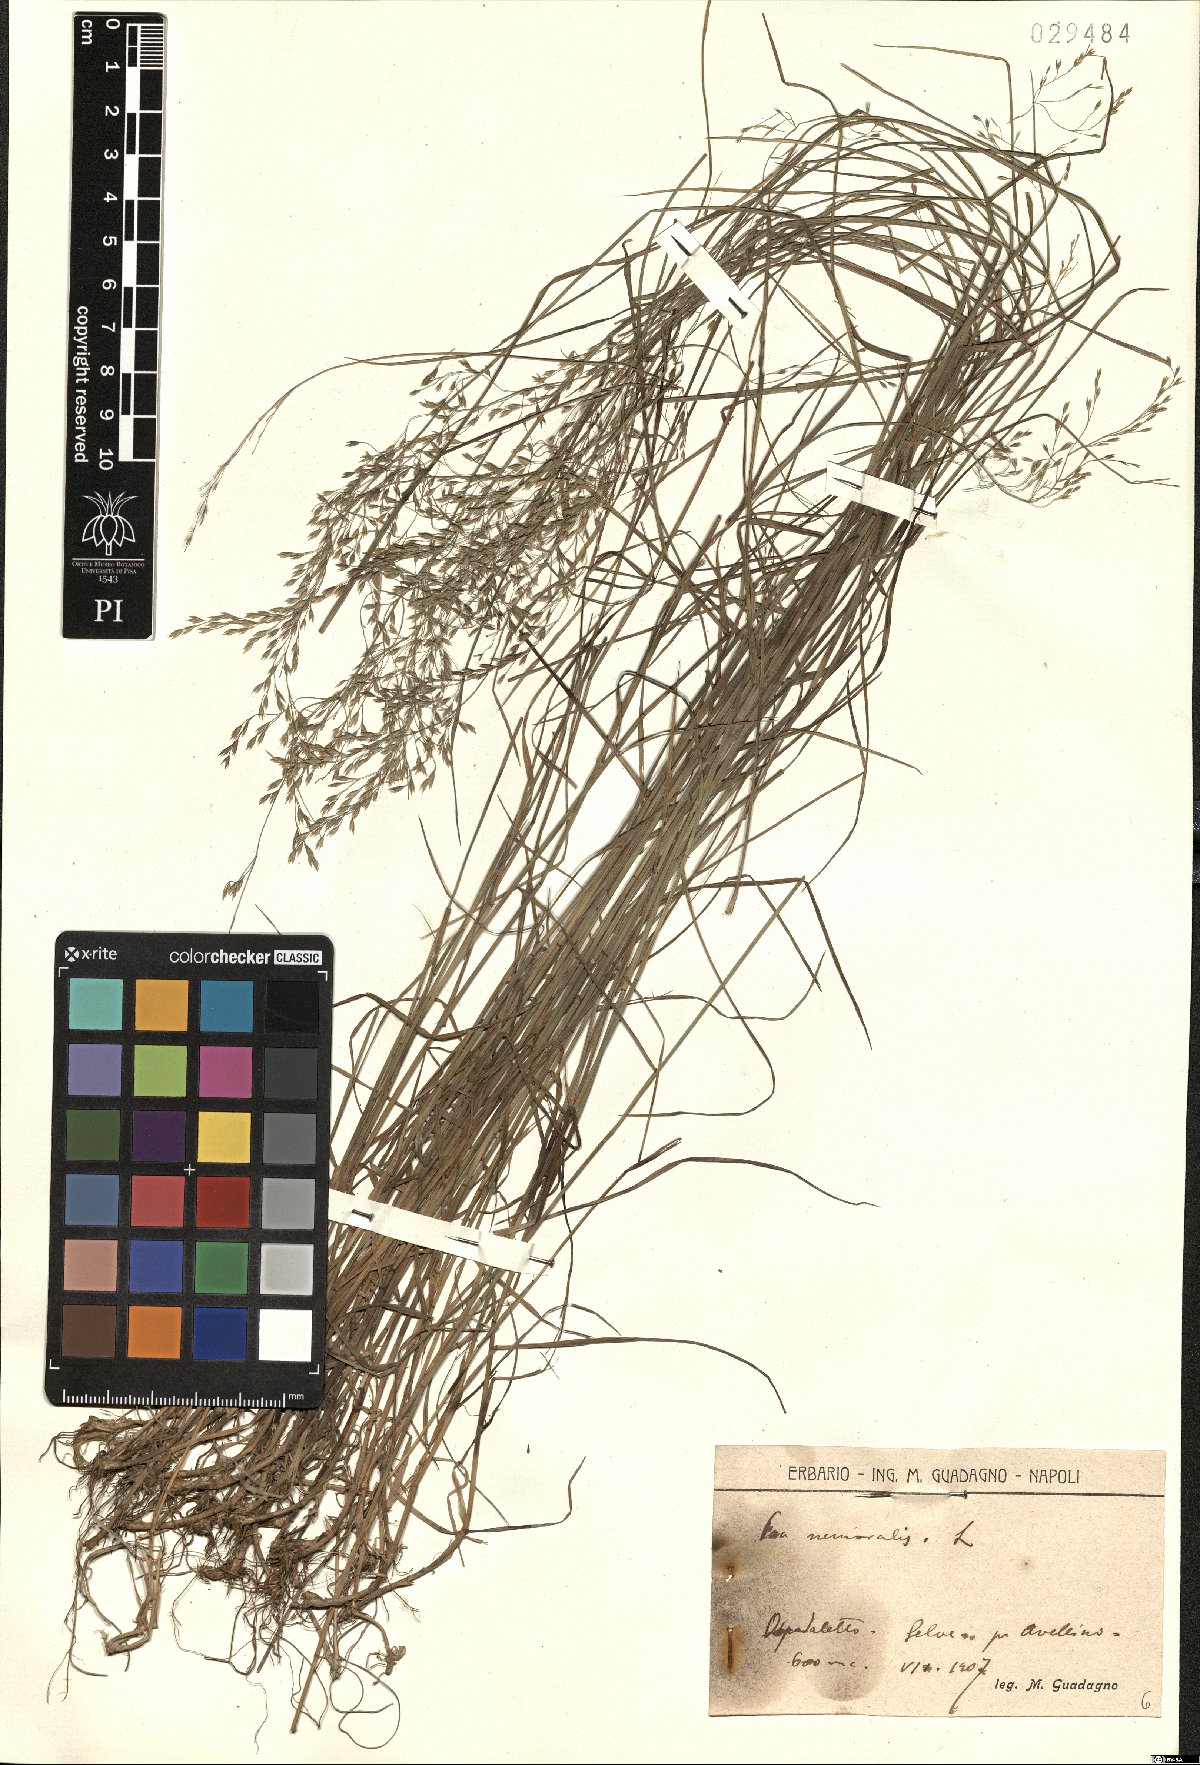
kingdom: Plantae
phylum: Tracheophyta
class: Liliopsida
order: Poales
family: Poaceae
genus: Poa
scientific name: Poa nemoralis
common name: Wood bluegrass
